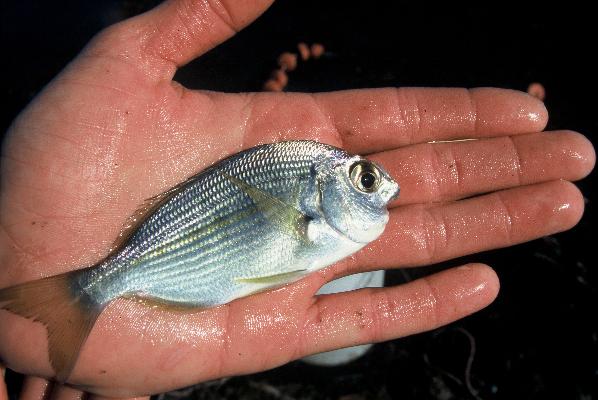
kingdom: Animalia
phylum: Chordata
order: Perciformes
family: Sparidae
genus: Rhabdosargus
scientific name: Rhabdosargus holubi
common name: Cape stumpnose
